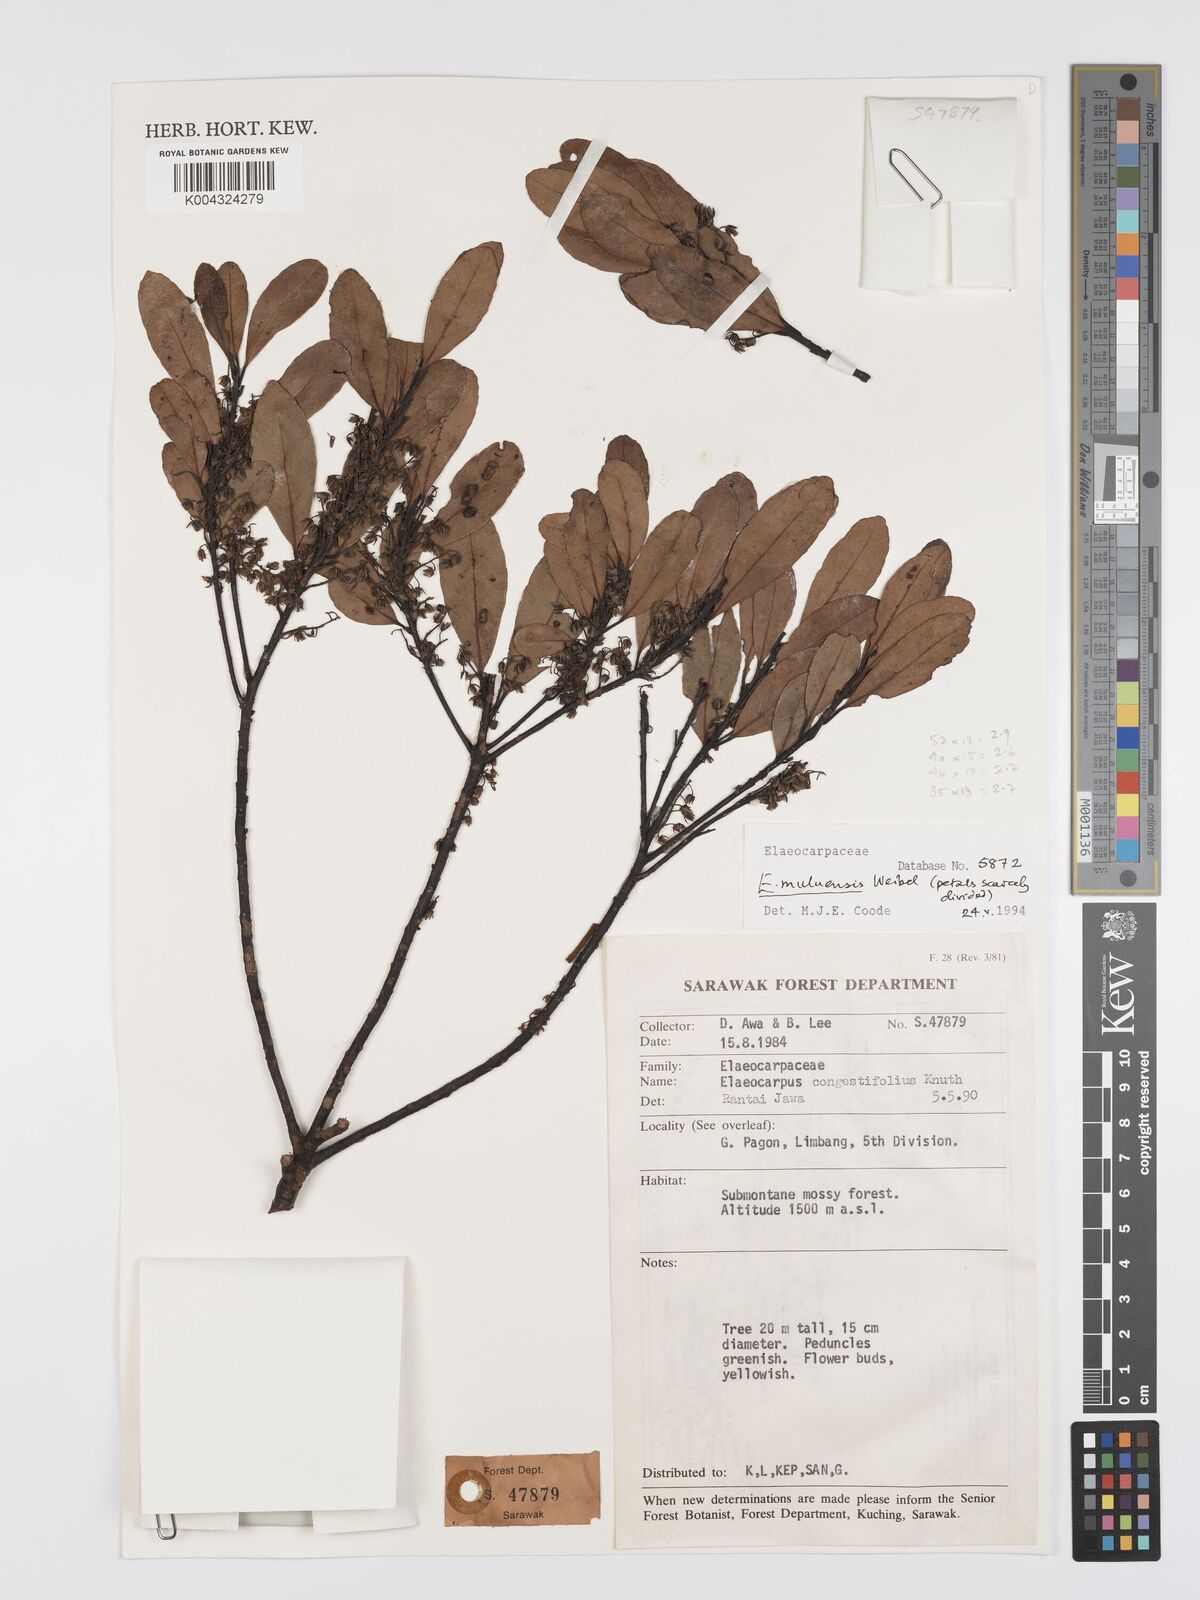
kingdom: Plantae
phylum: Tracheophyta
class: Magnoliopsida
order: Oxalidales
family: Elaeocarpaceae
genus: Elaeocarpus
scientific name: Elaeocarpus muluensis
